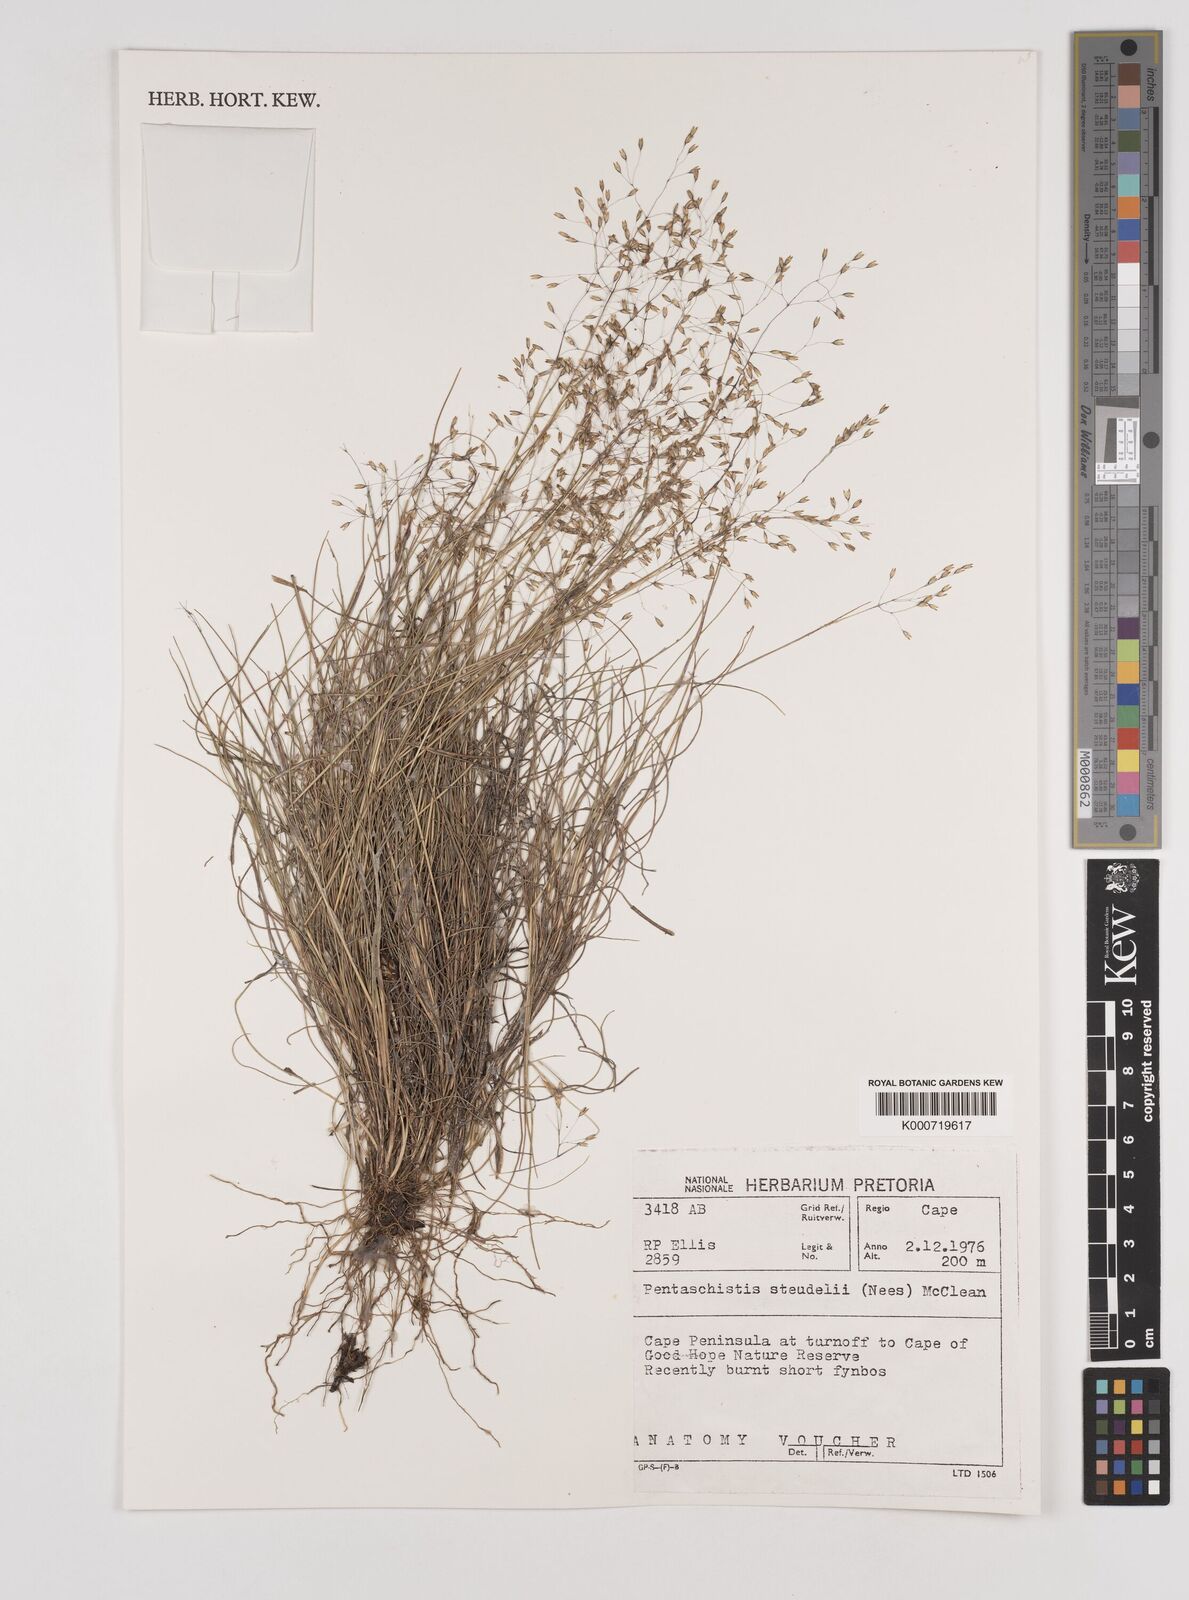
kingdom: Plantae
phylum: Tracheophyta
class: Liliopsida
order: Poales
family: Poaceae
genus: Pentameris
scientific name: Pentameris malouinensis
